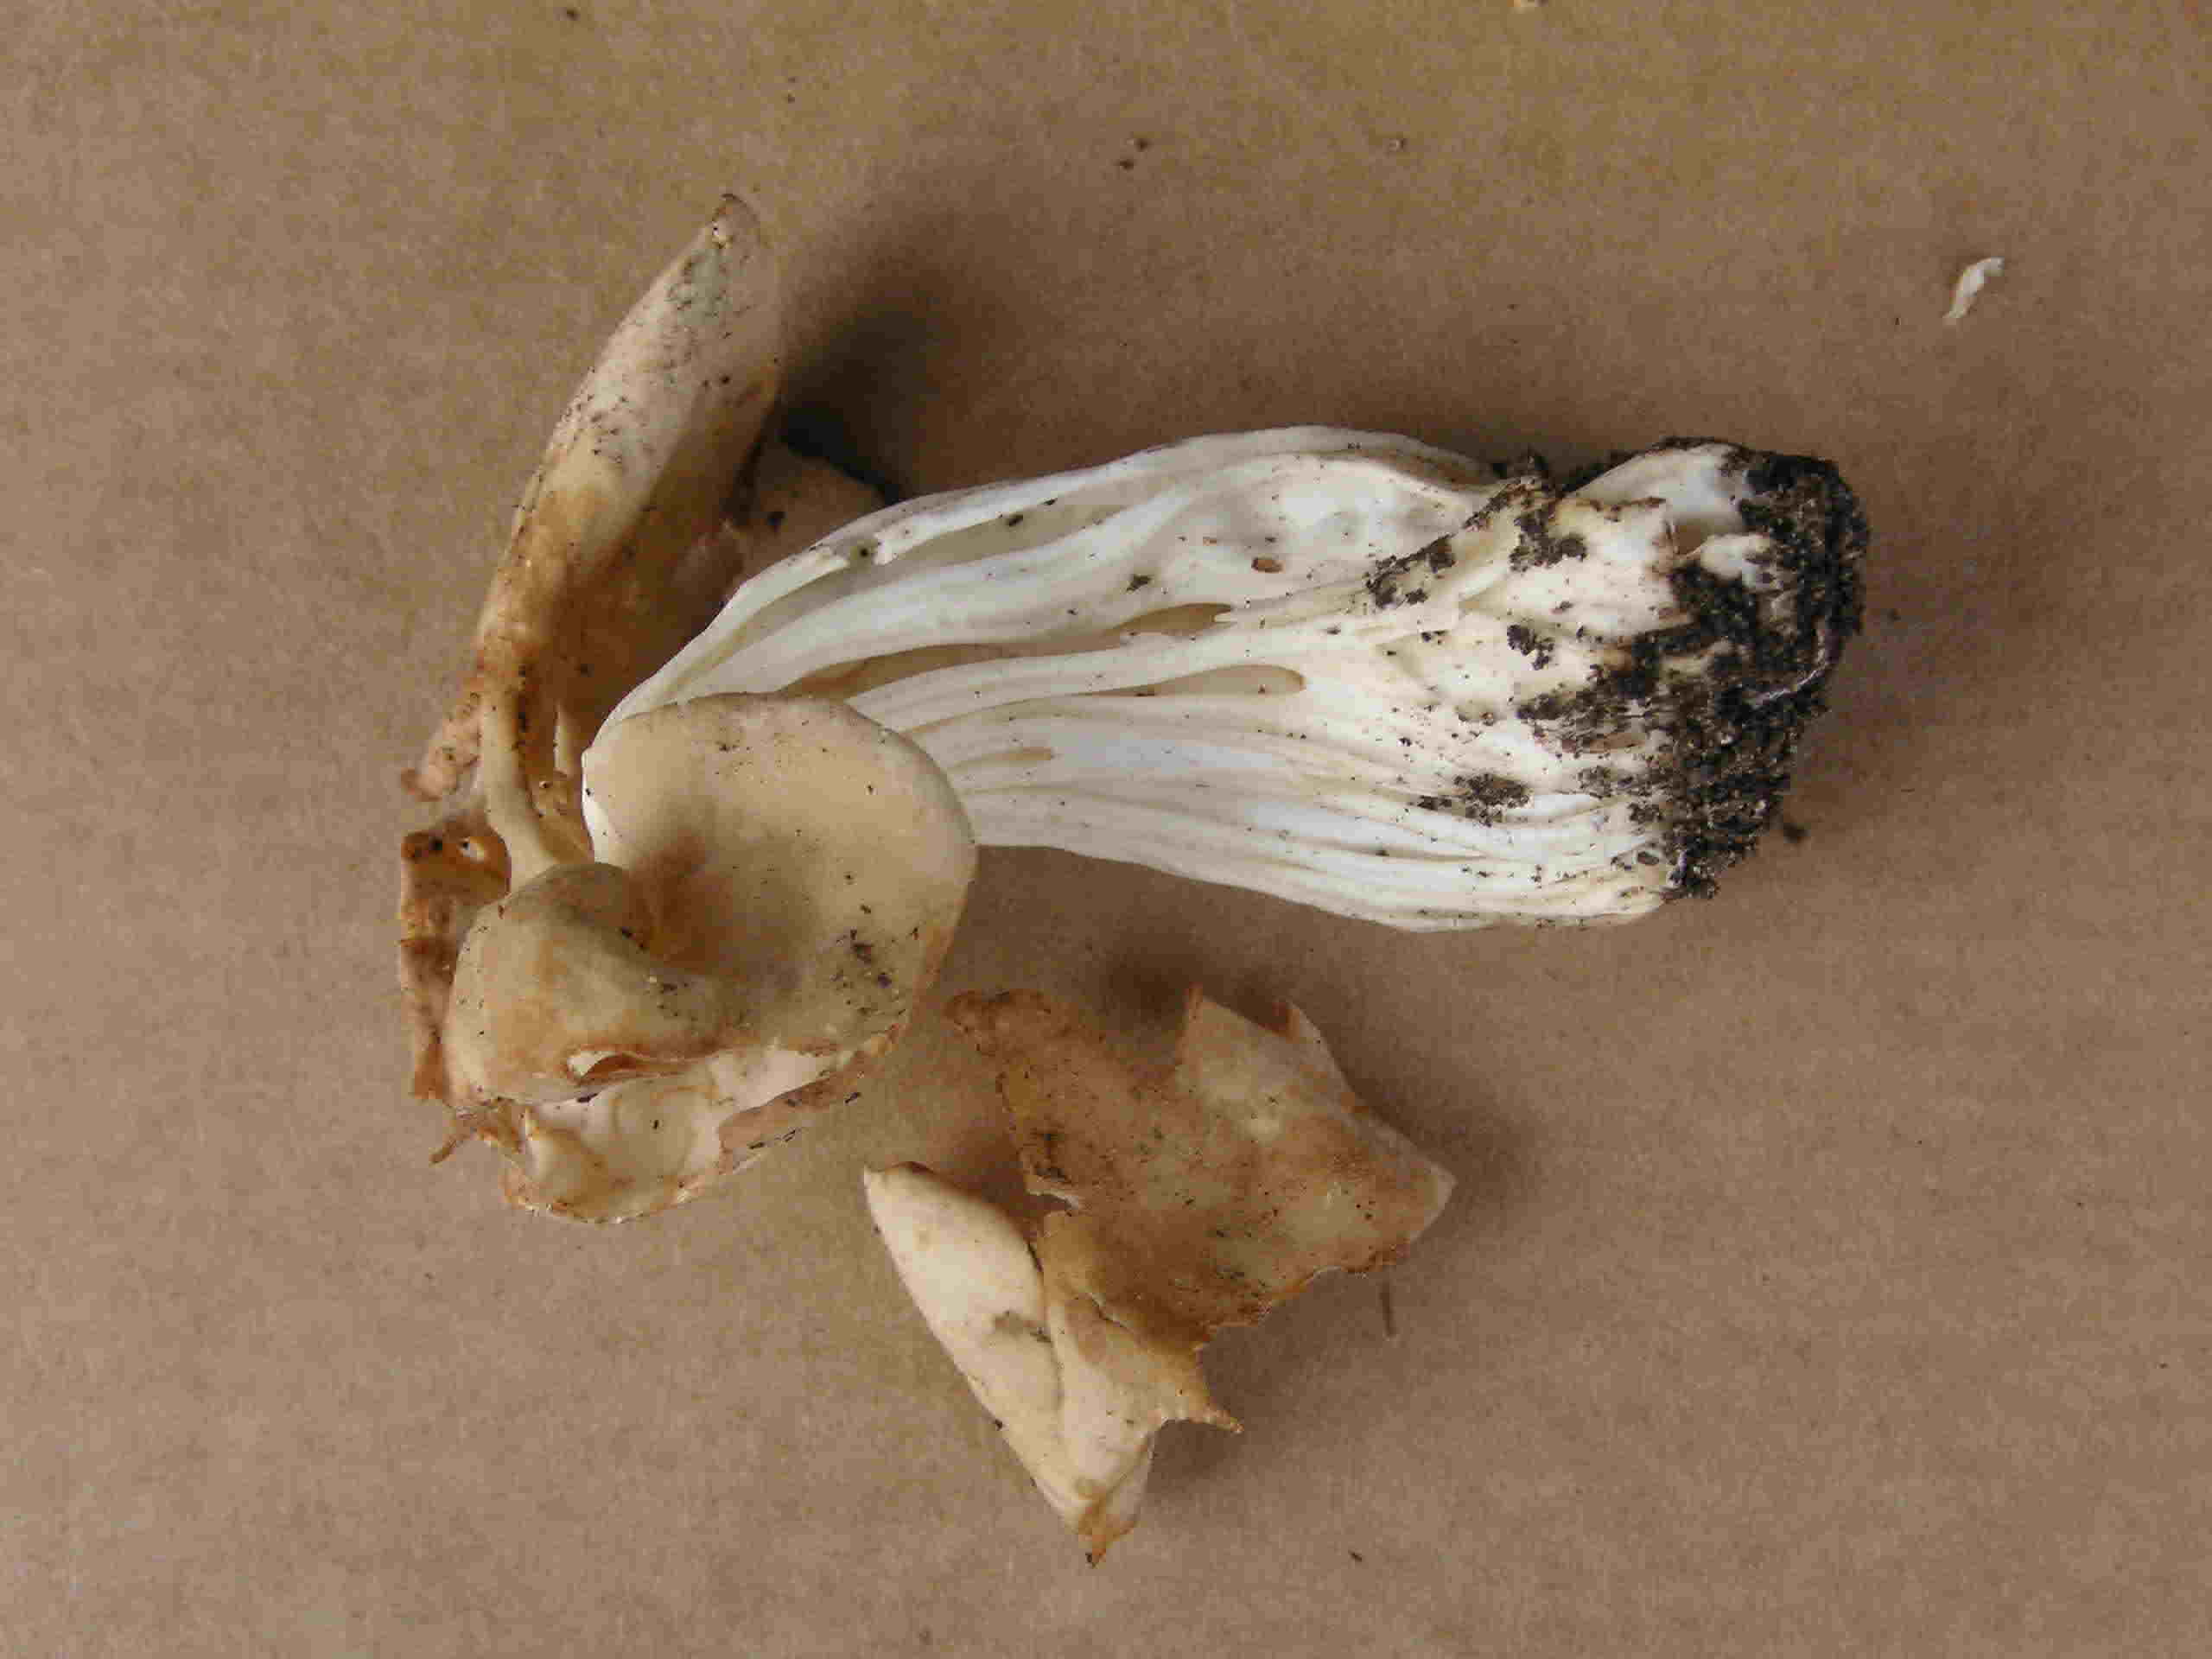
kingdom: Fungi
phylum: Ascomycota
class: Pezizomycetes
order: Pezizales
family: Helvellaceae
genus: Helvella
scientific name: Helvella crispa
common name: kruset foldhat
